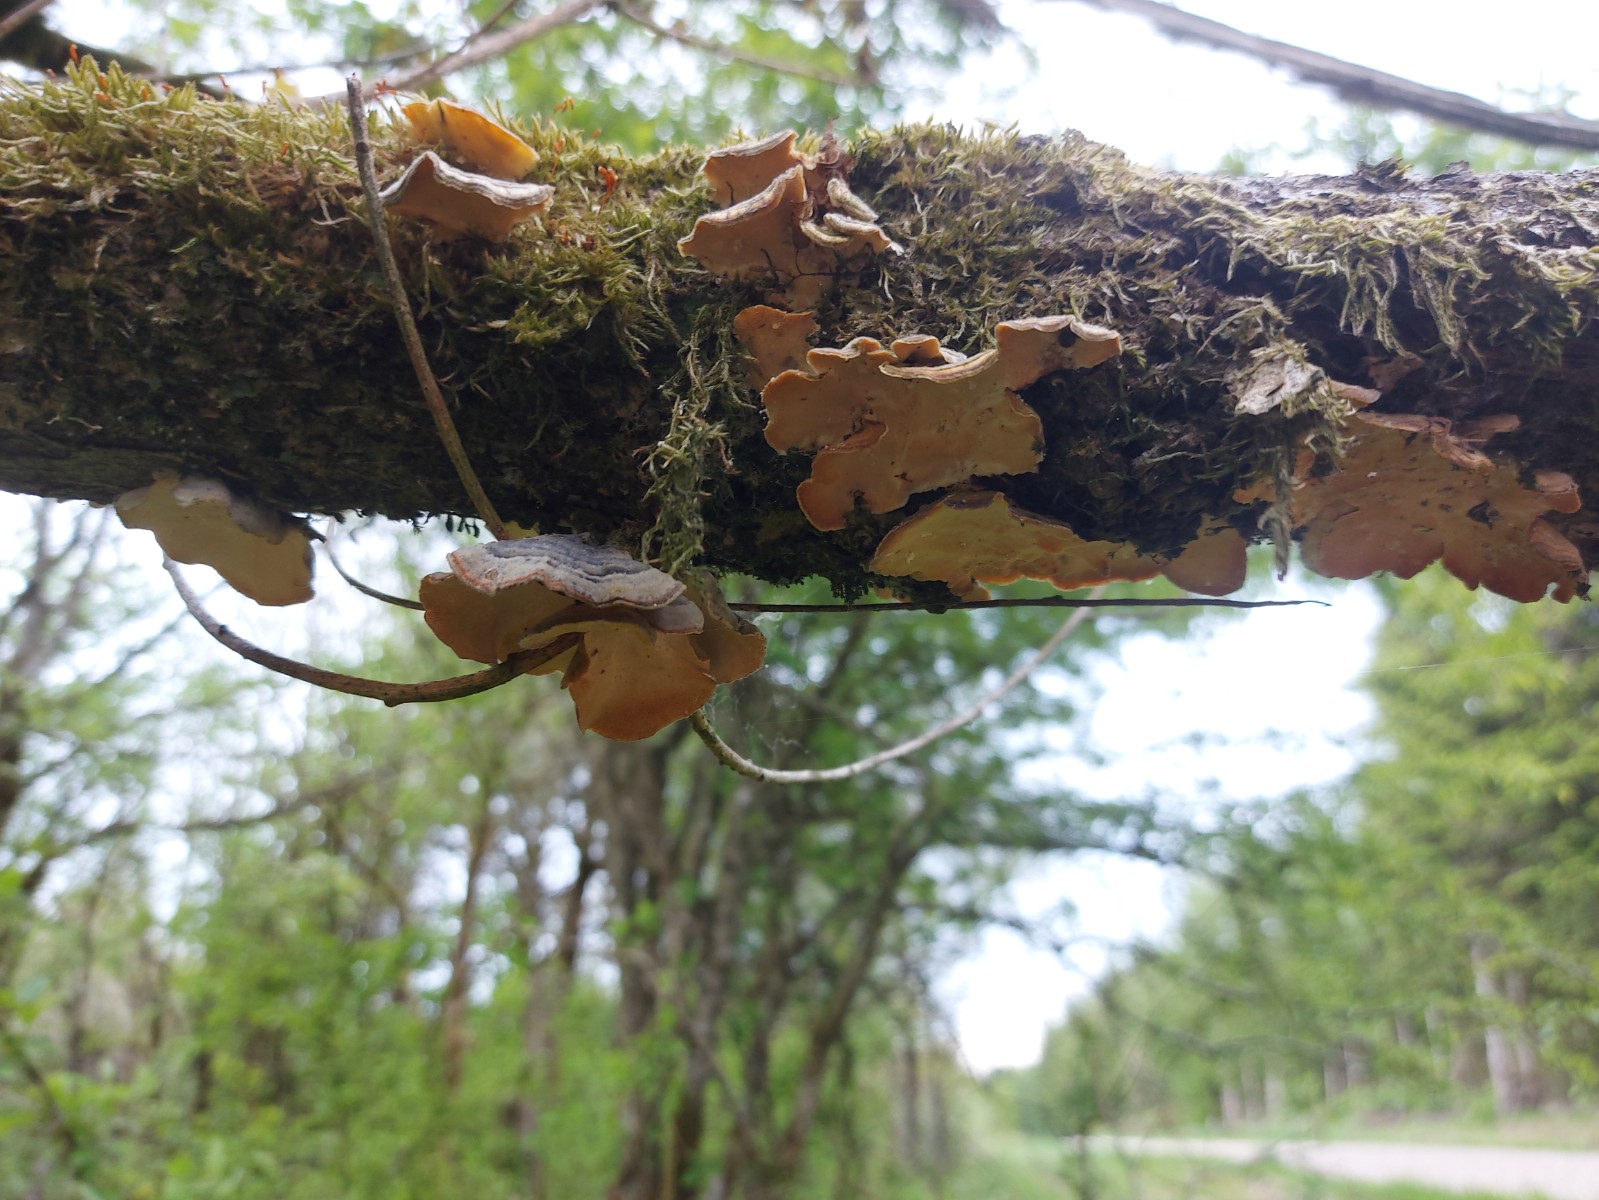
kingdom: Fungi
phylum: Basidiomycota
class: Agaricomycetes
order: Polyporales
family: Polyporaceae
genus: Trametes
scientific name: Trametes versicolor
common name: broget læderporesvamp
